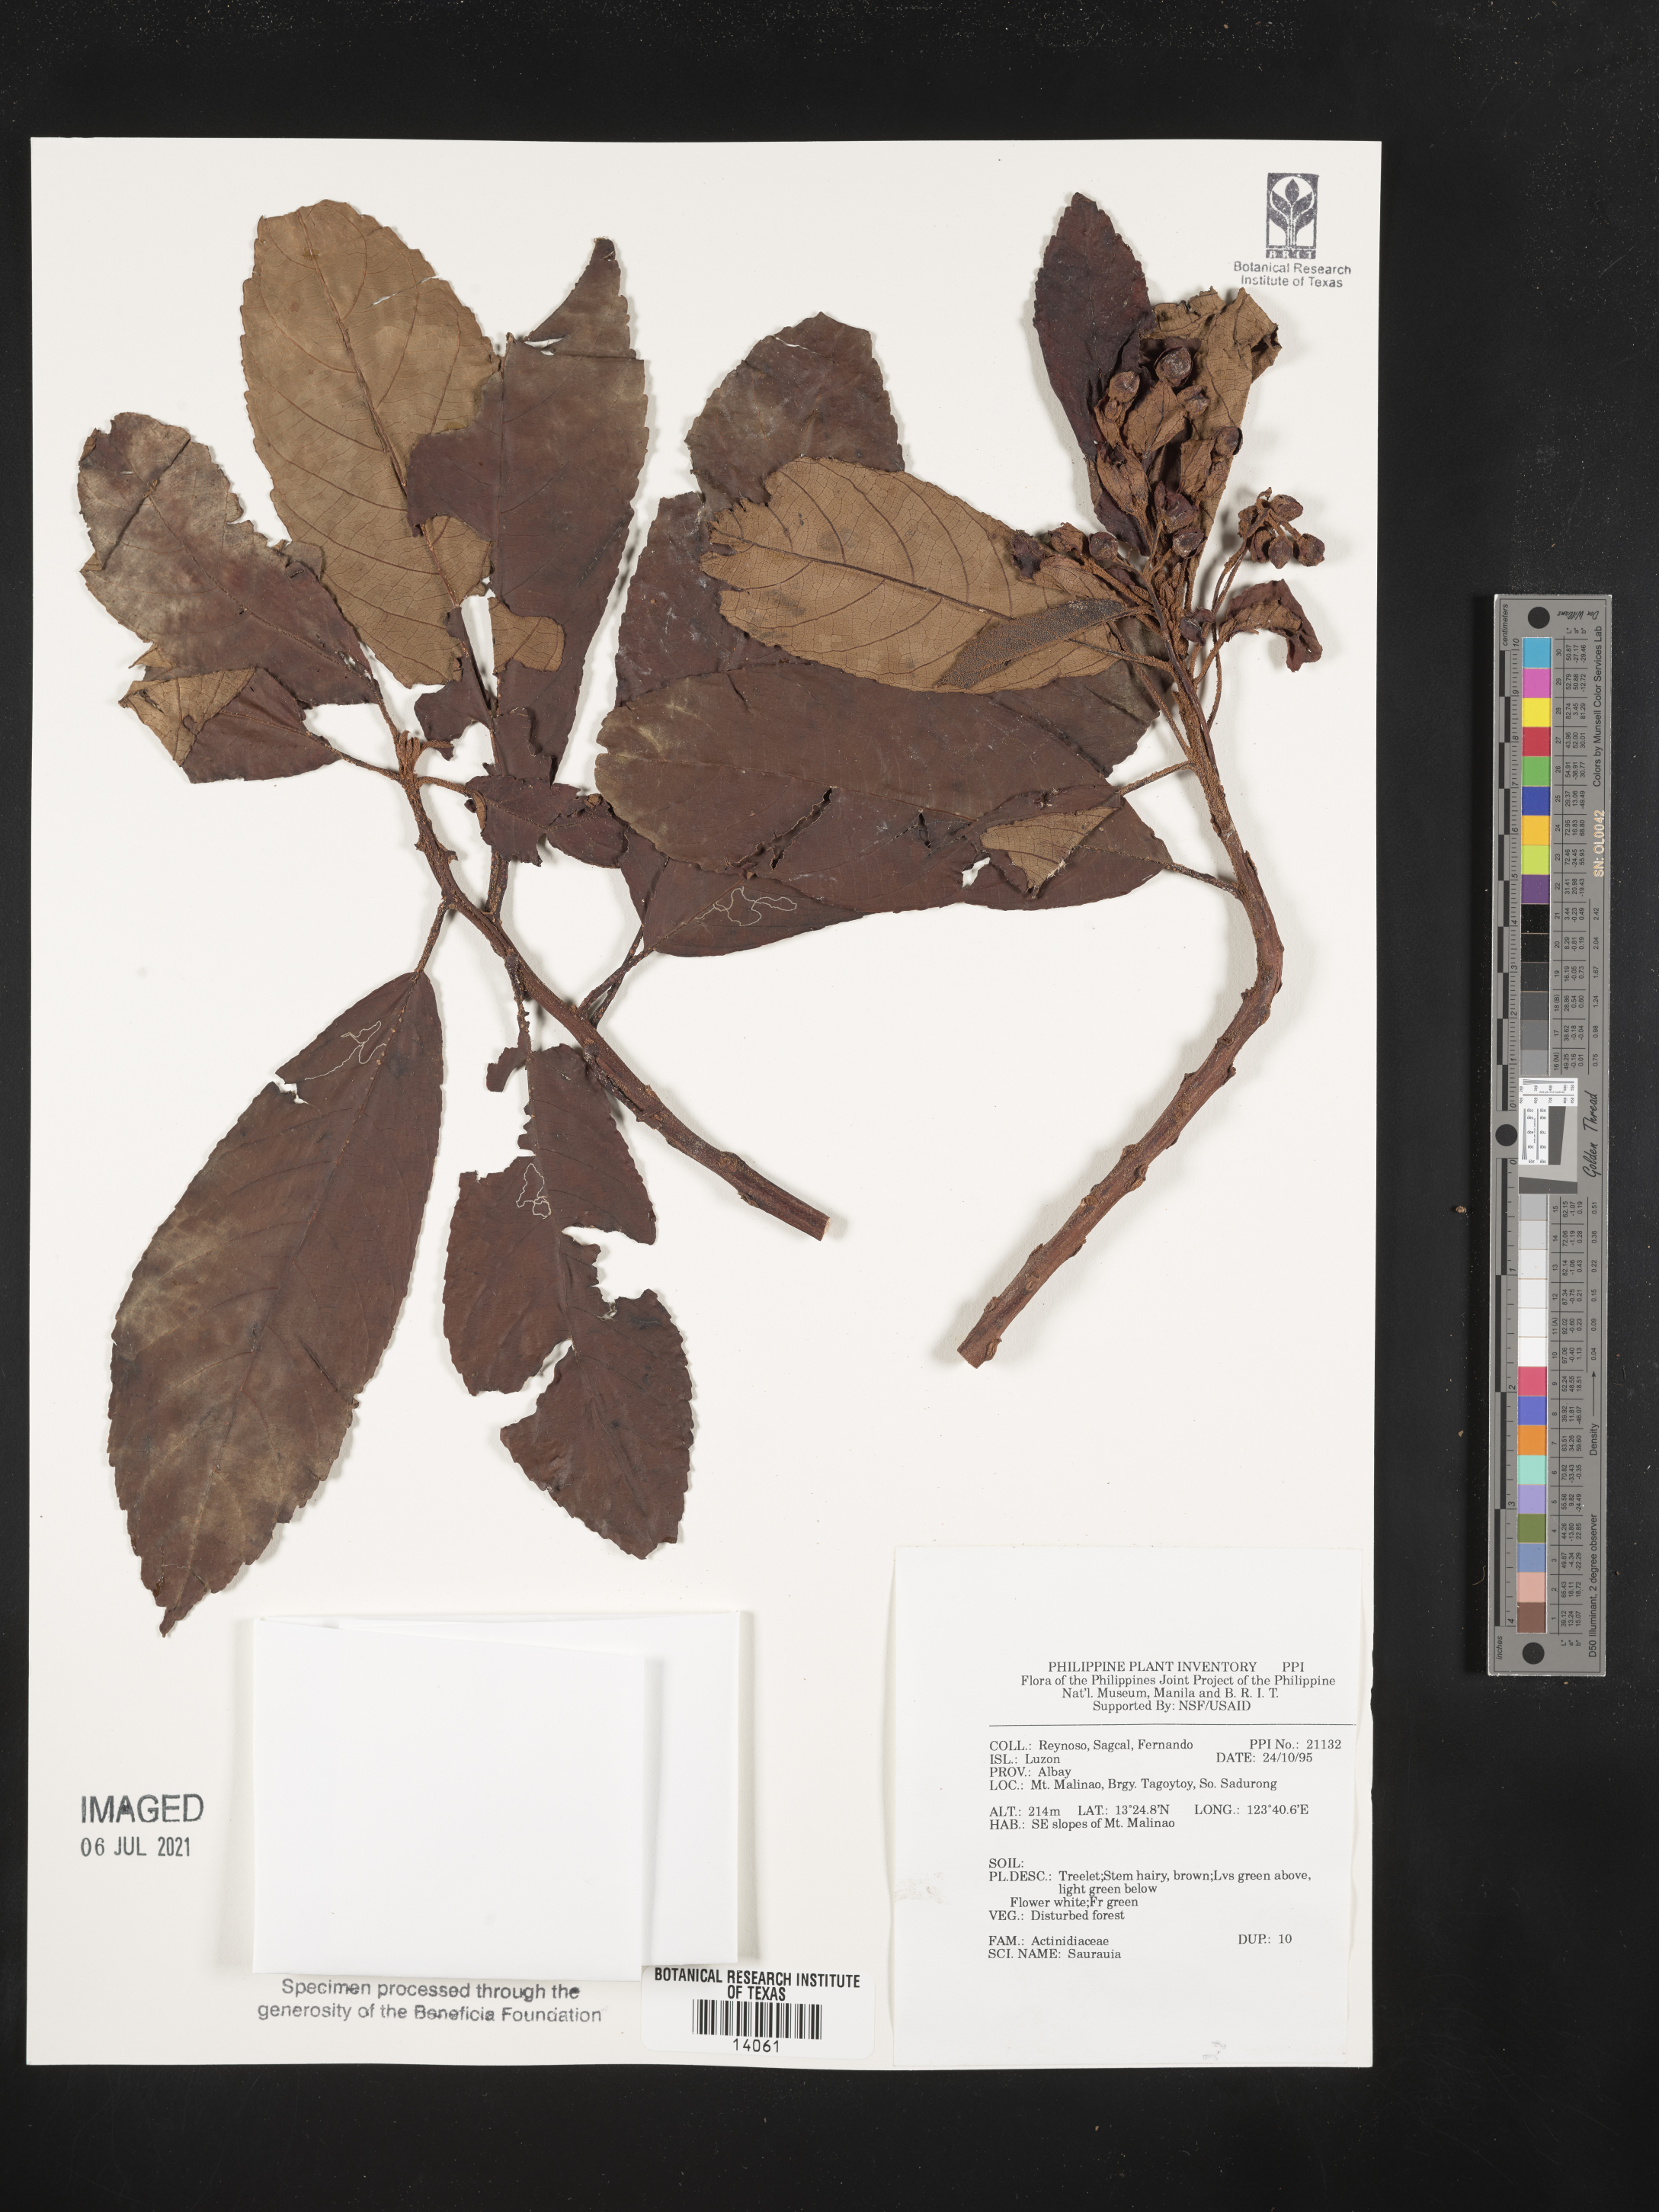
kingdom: Plantae
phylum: Tracheophyta
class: Magnoliopsida
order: Ericales
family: Actinidiaceae
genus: Saurauia
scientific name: Saurauia
